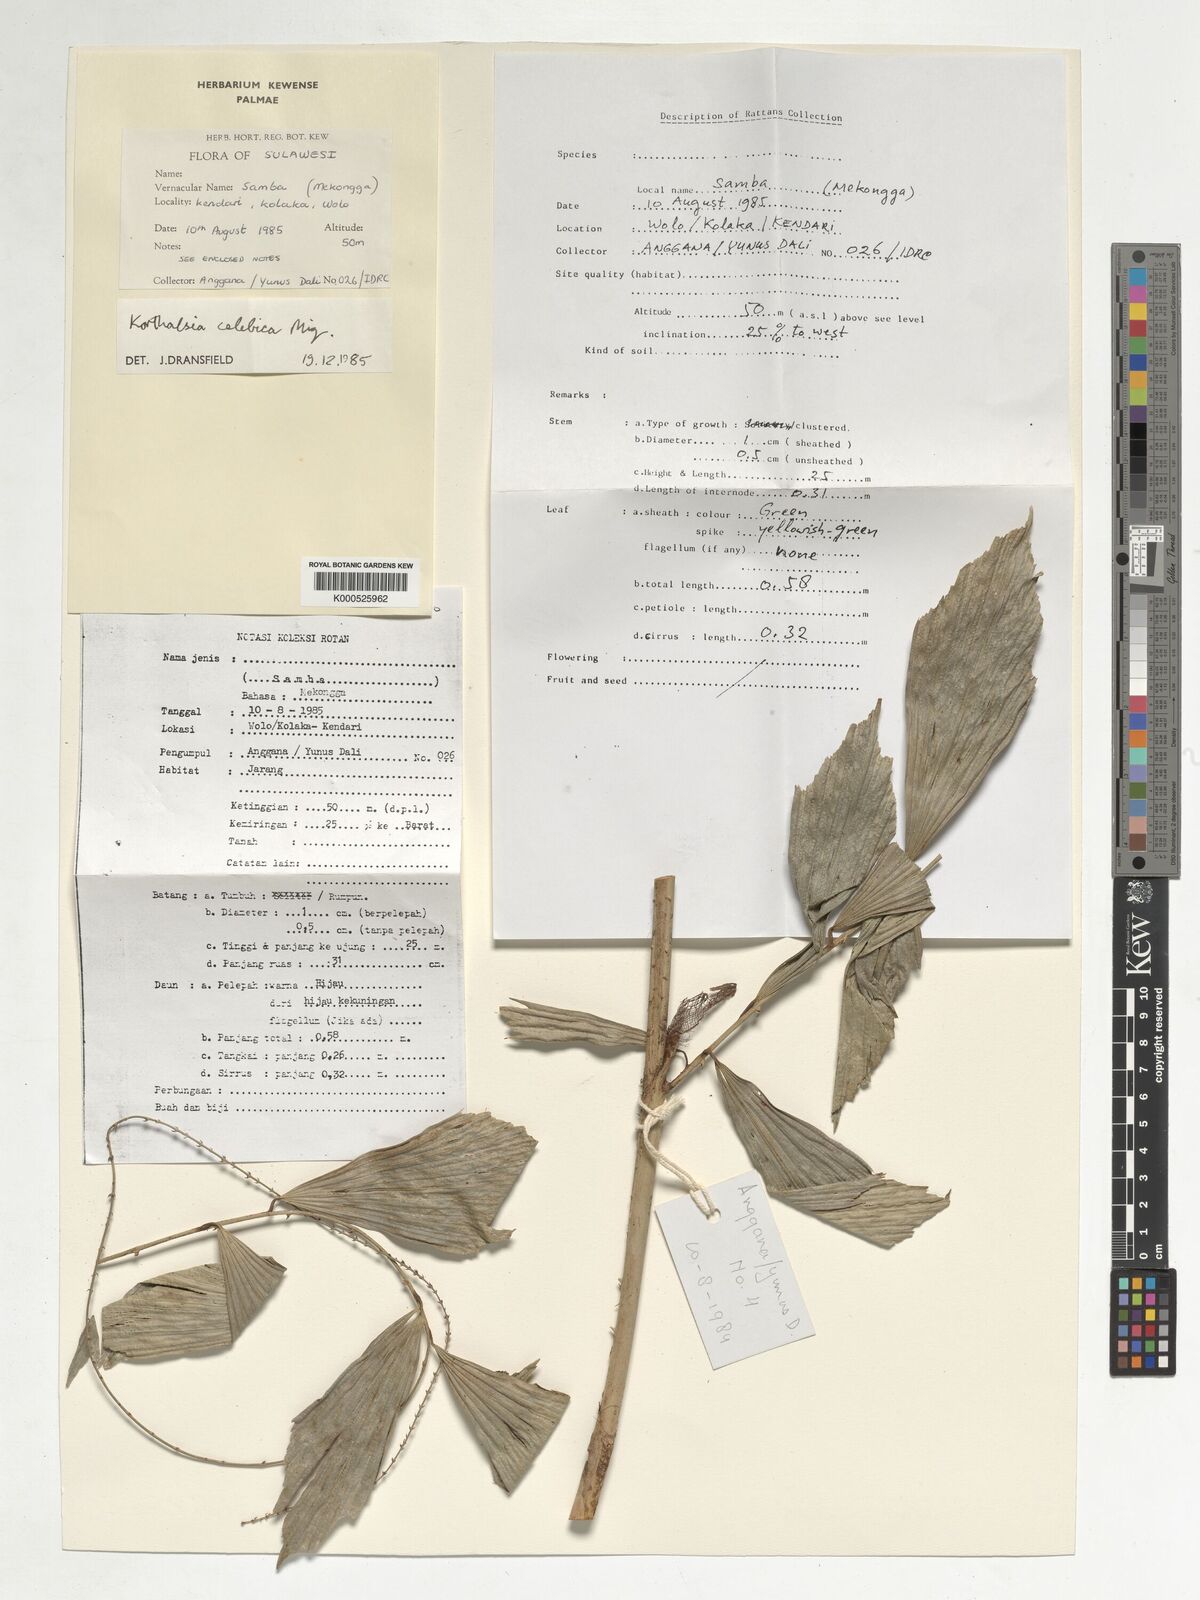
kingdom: Plantae
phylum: Tracheophyta
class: Liliopsida
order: Arecales
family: Arecaceae
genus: Korthalsia
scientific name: Korthalsia celebica
